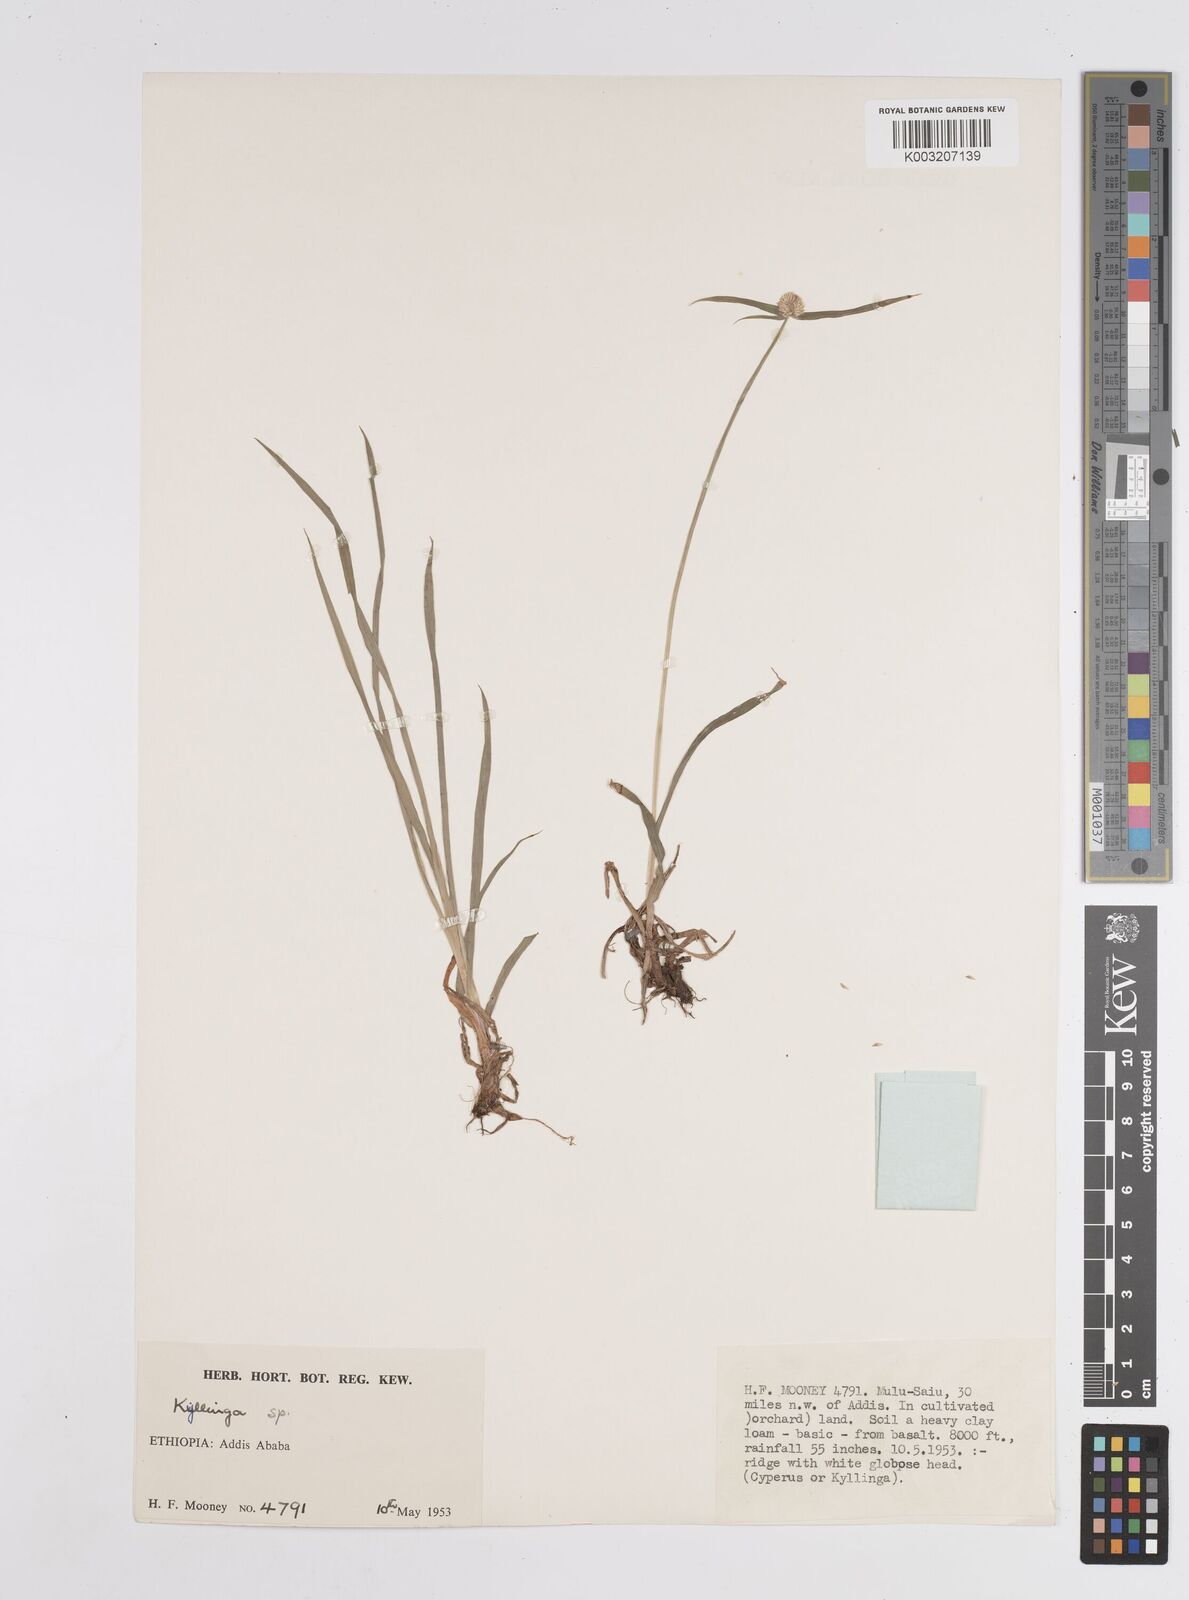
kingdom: Plantae
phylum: Tracheophyta
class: Liliopsida
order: Poales
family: Cyperaceae
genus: Cyperus
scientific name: Cyperus
